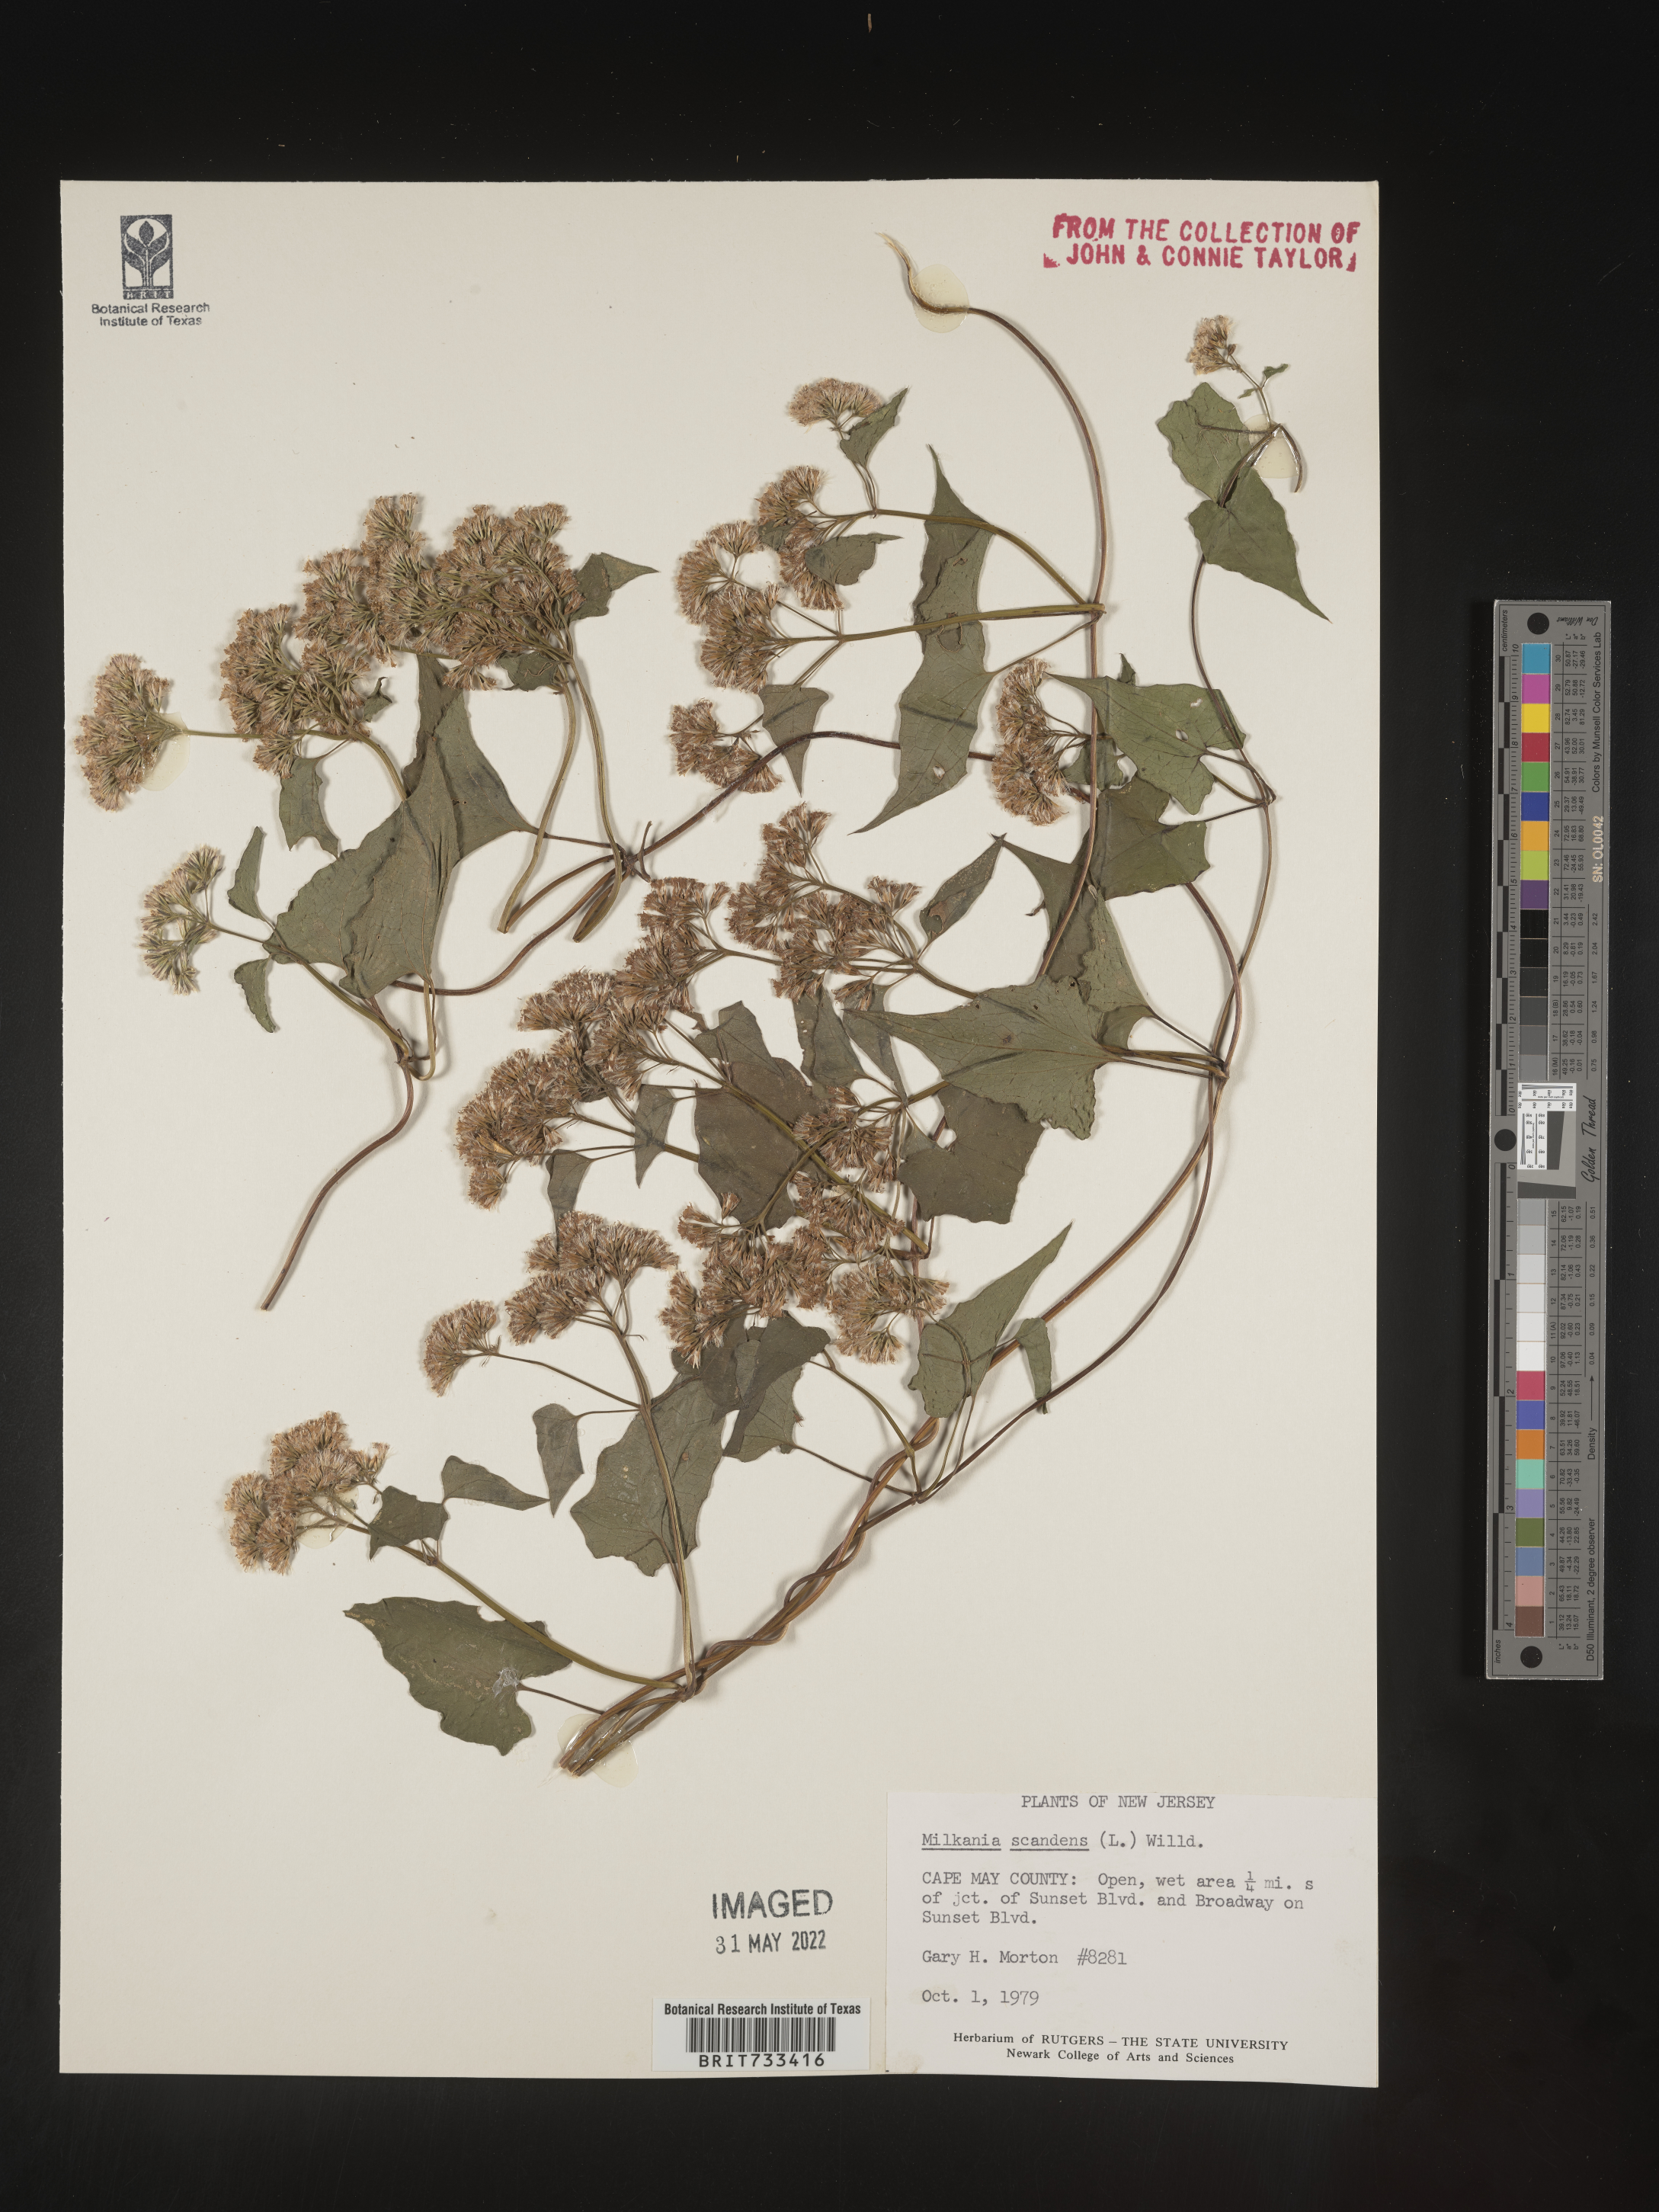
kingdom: Plantae
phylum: Tracheophyta
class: Magnoliopsida
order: Asterales
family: Asteraceae
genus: Mikania
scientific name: Mikania scandens
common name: Climbing hempvine
